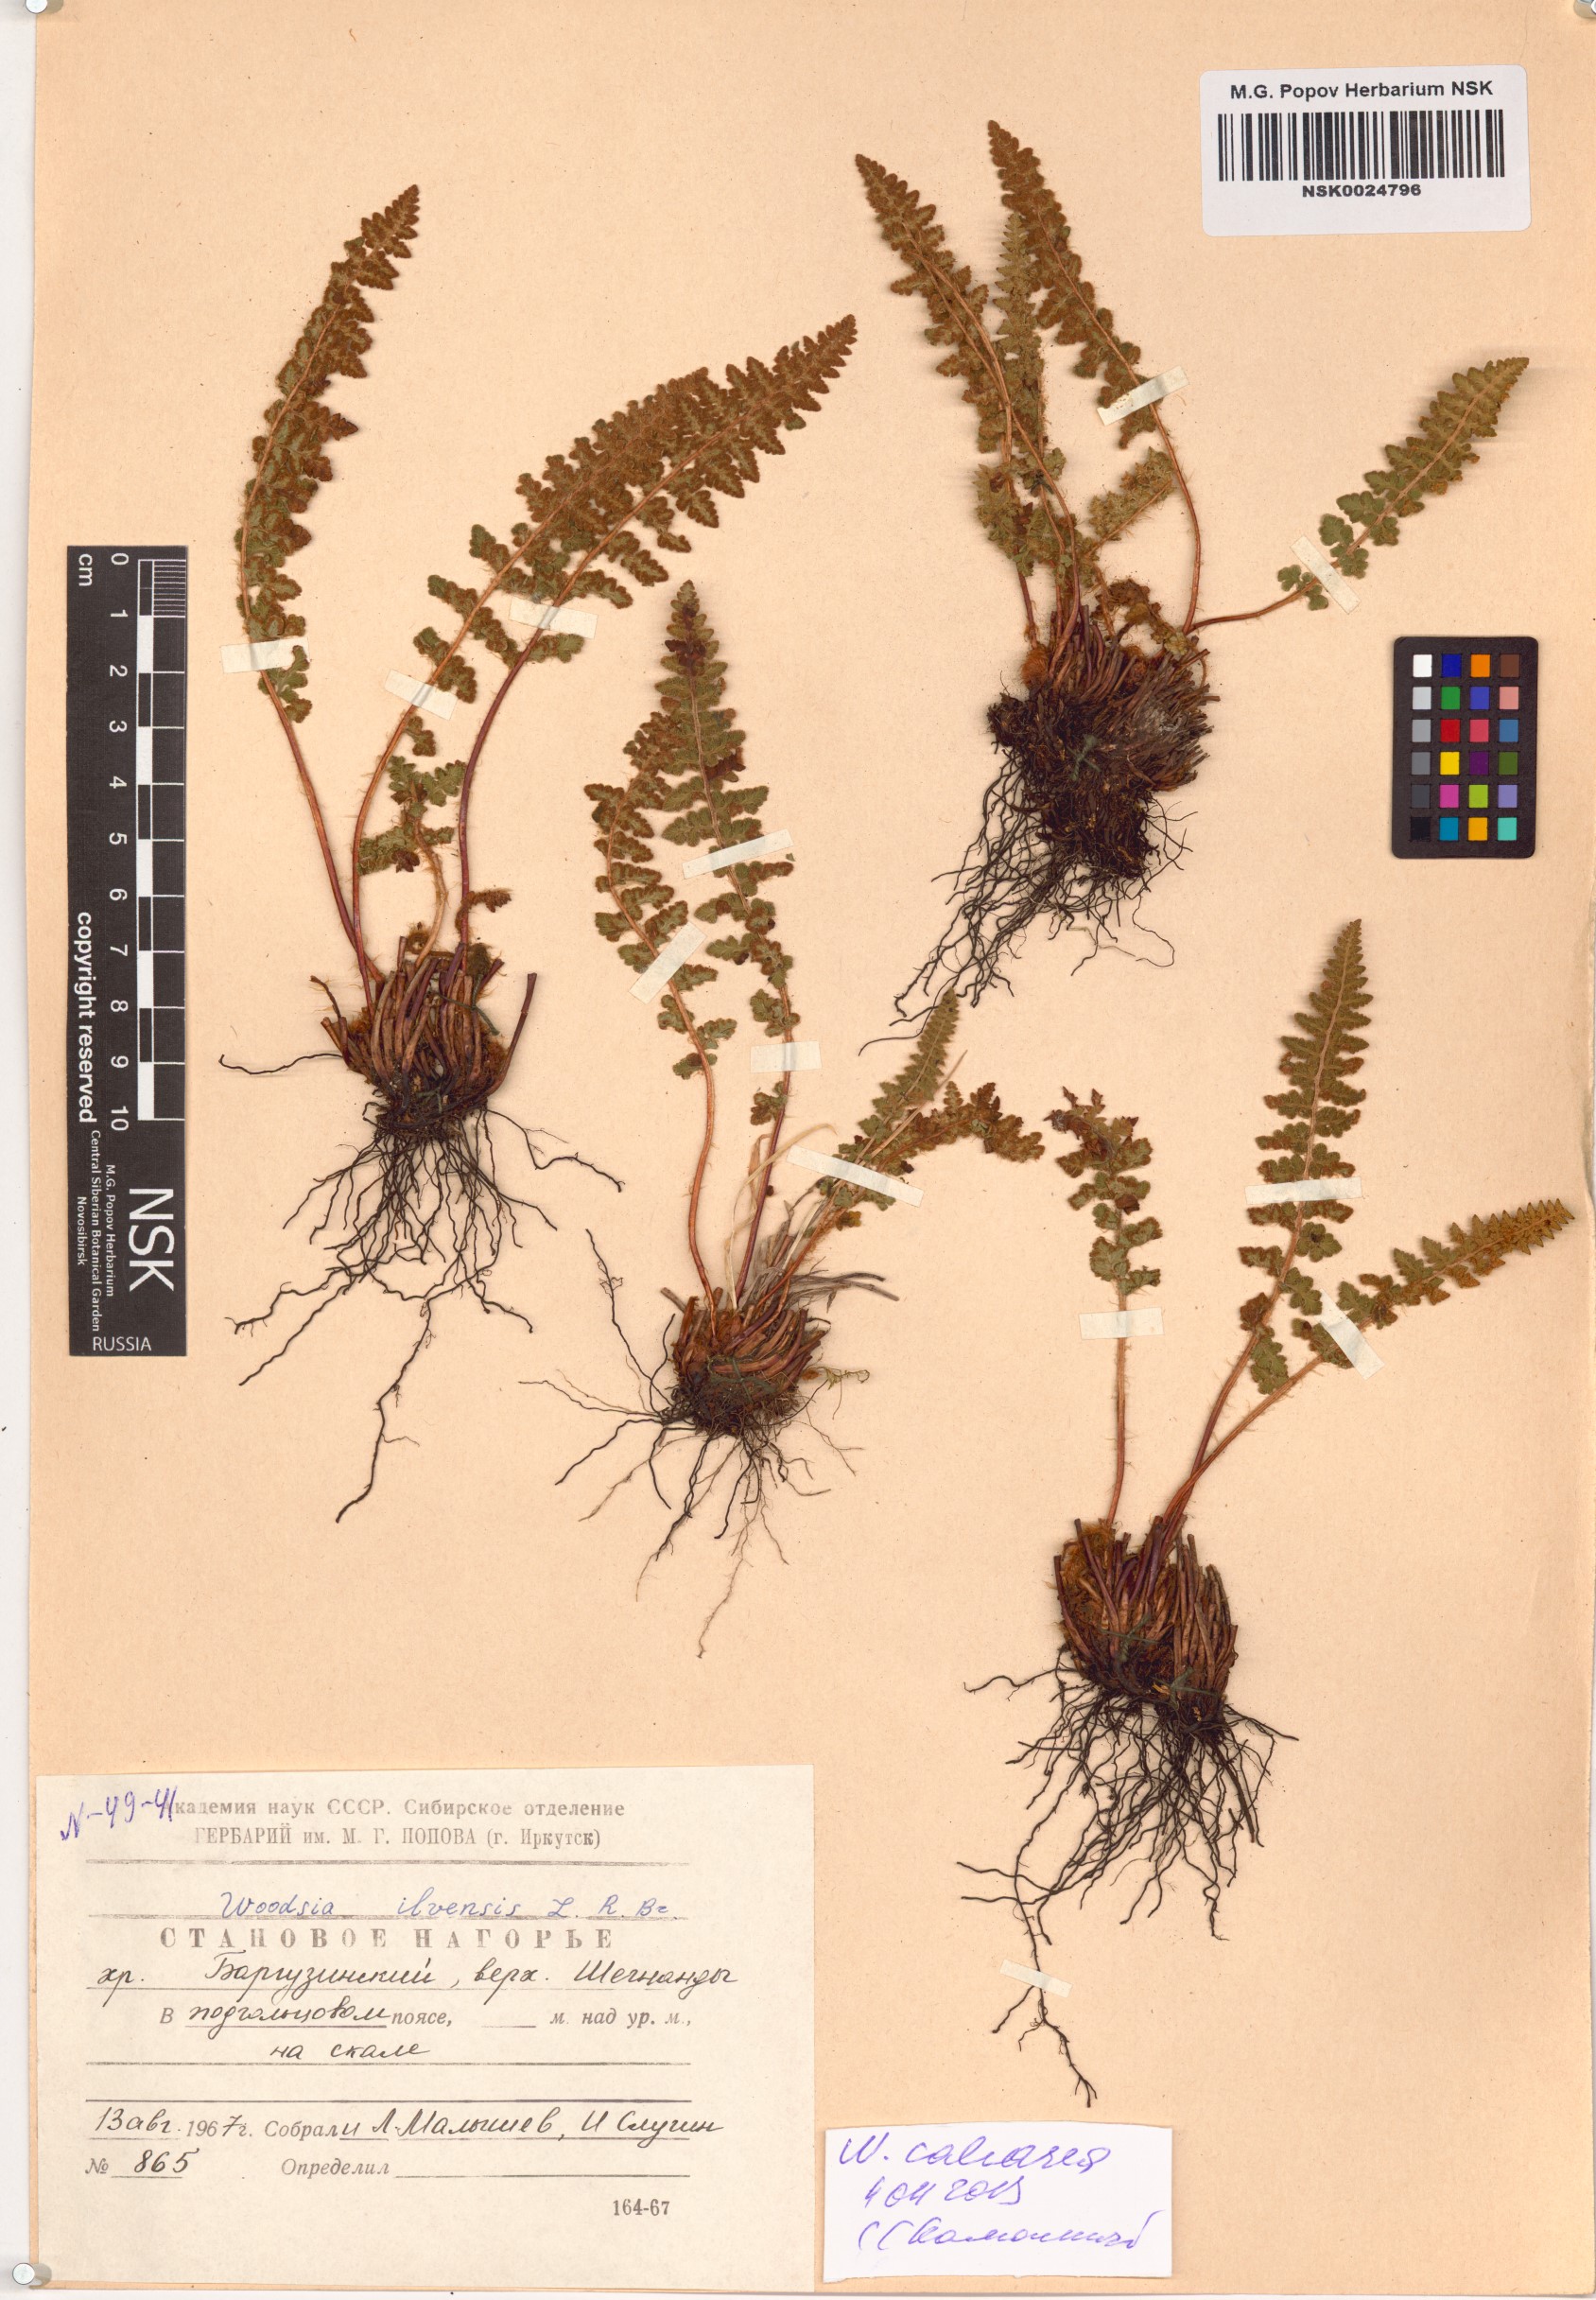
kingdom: Plantae
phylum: Tracheophyta
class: Polypodiopsida
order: Polypodiales
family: Woodsiaceae
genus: Woodsia
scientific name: Woodsia calcarea
